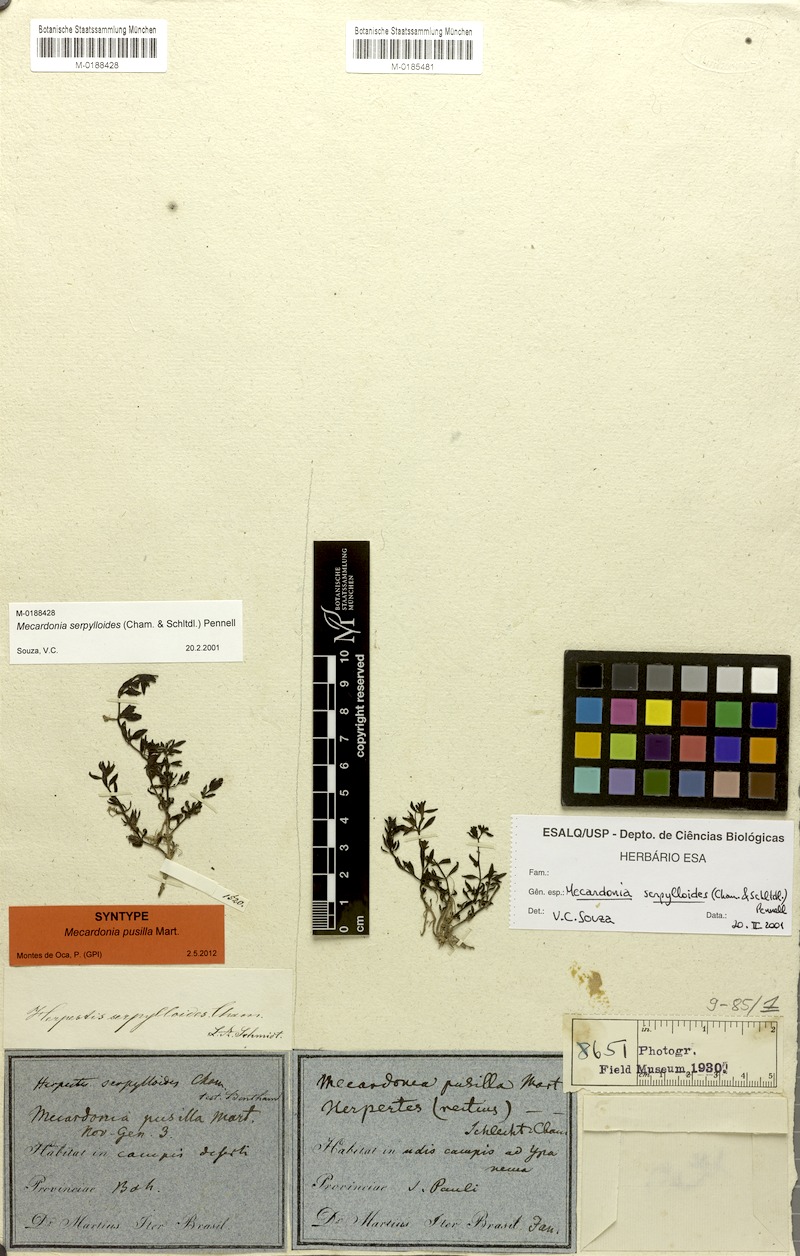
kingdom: Plantae
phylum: Tracheophyta
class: Magnoliopsida
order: Lamiales
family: Plantaginaceae
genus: Mecardonia
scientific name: Mecardonia serpylloides
